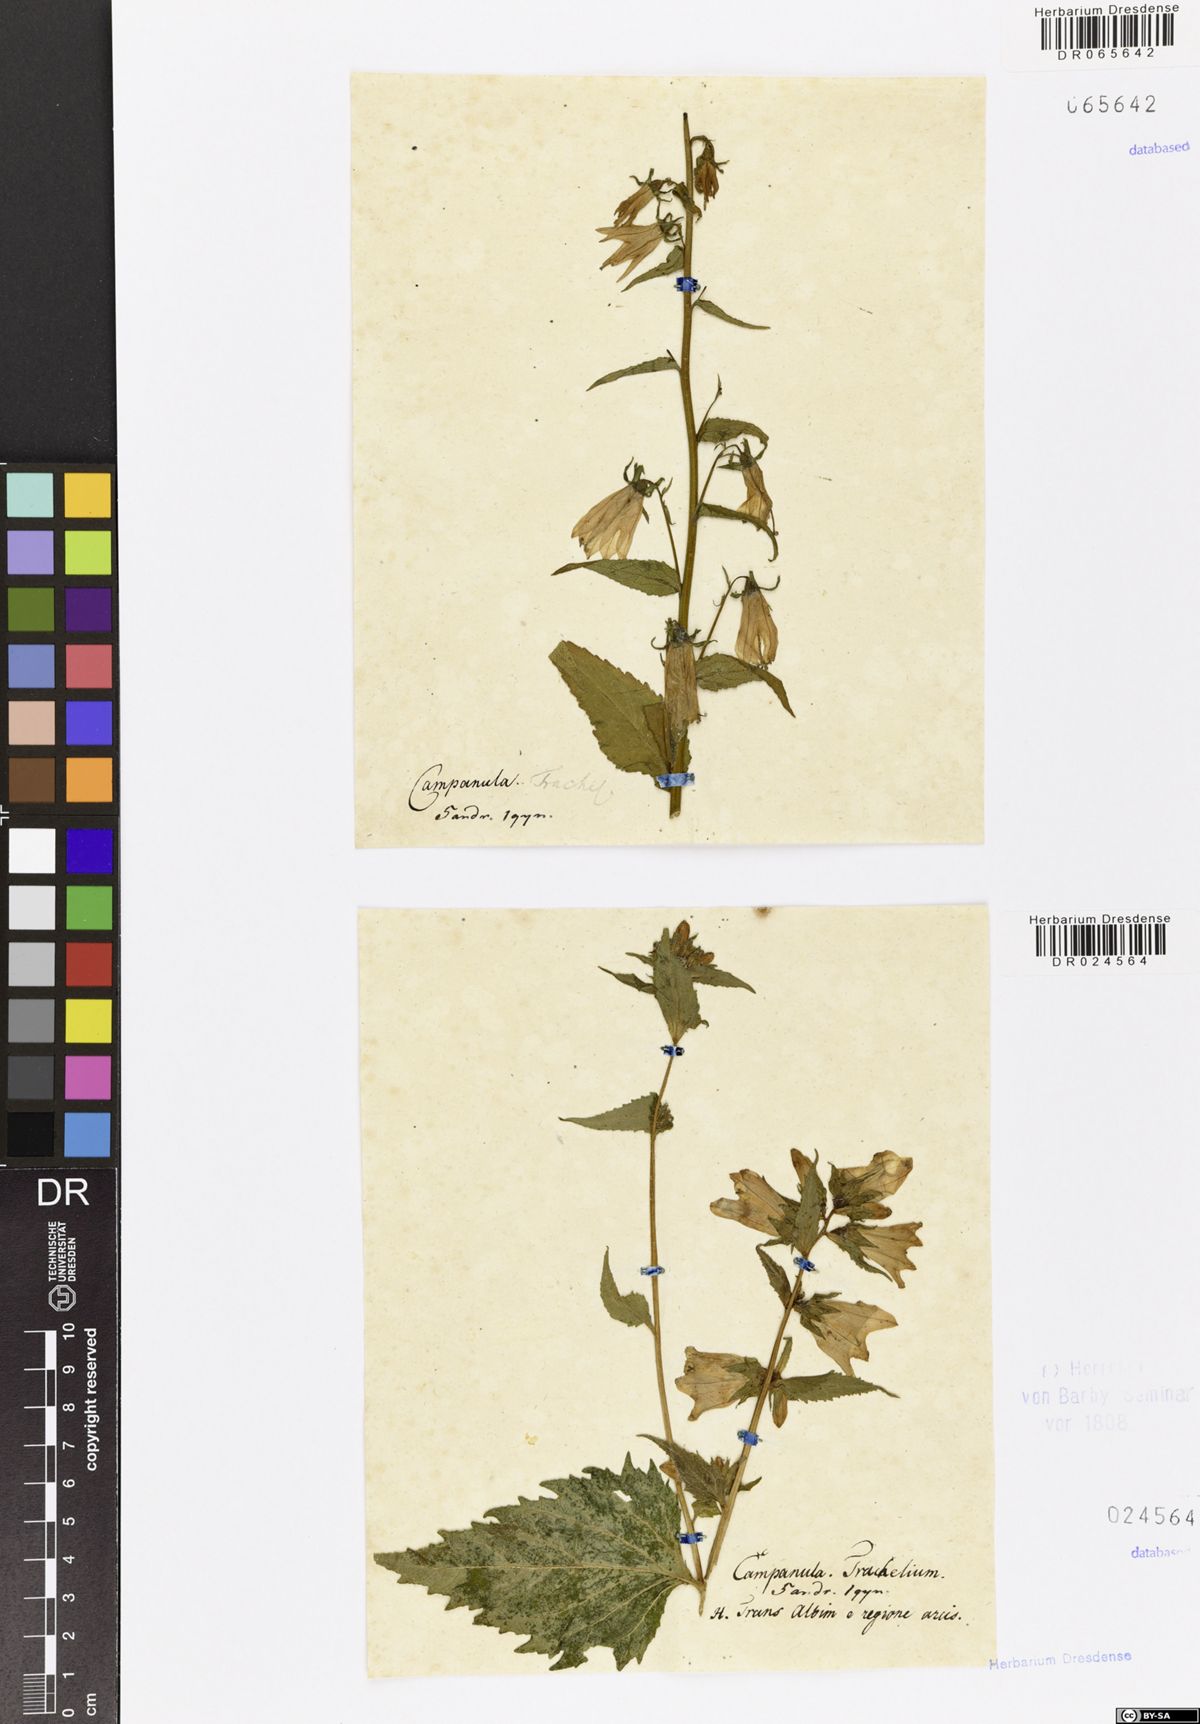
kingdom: Plantae
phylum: Tracheophyta
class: Magnoliopsida
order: Asterales
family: Campanulaceae
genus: Campanula
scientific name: Campanula trachelium
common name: Nettle-leaved bellflower
